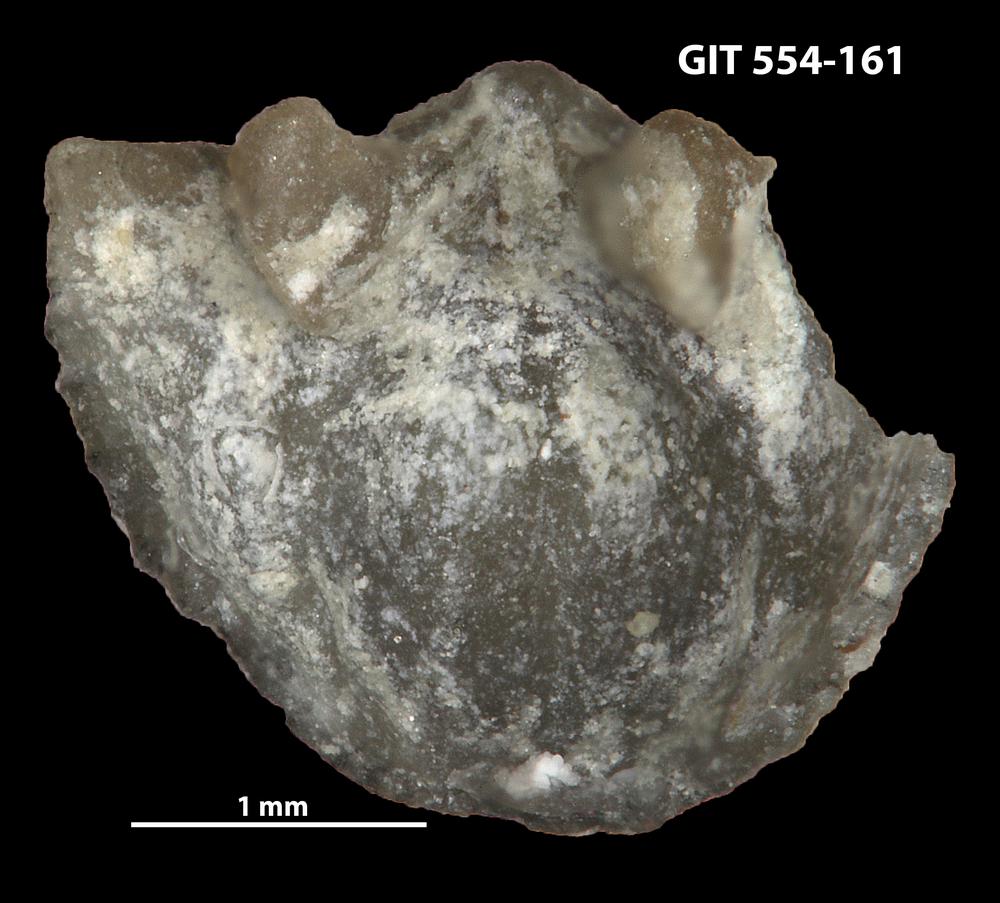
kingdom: Animalia
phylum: Brachiopoda
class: Rhynchonellata
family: Dalmanellidae
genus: Resserella
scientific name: Resserella sabrinae
